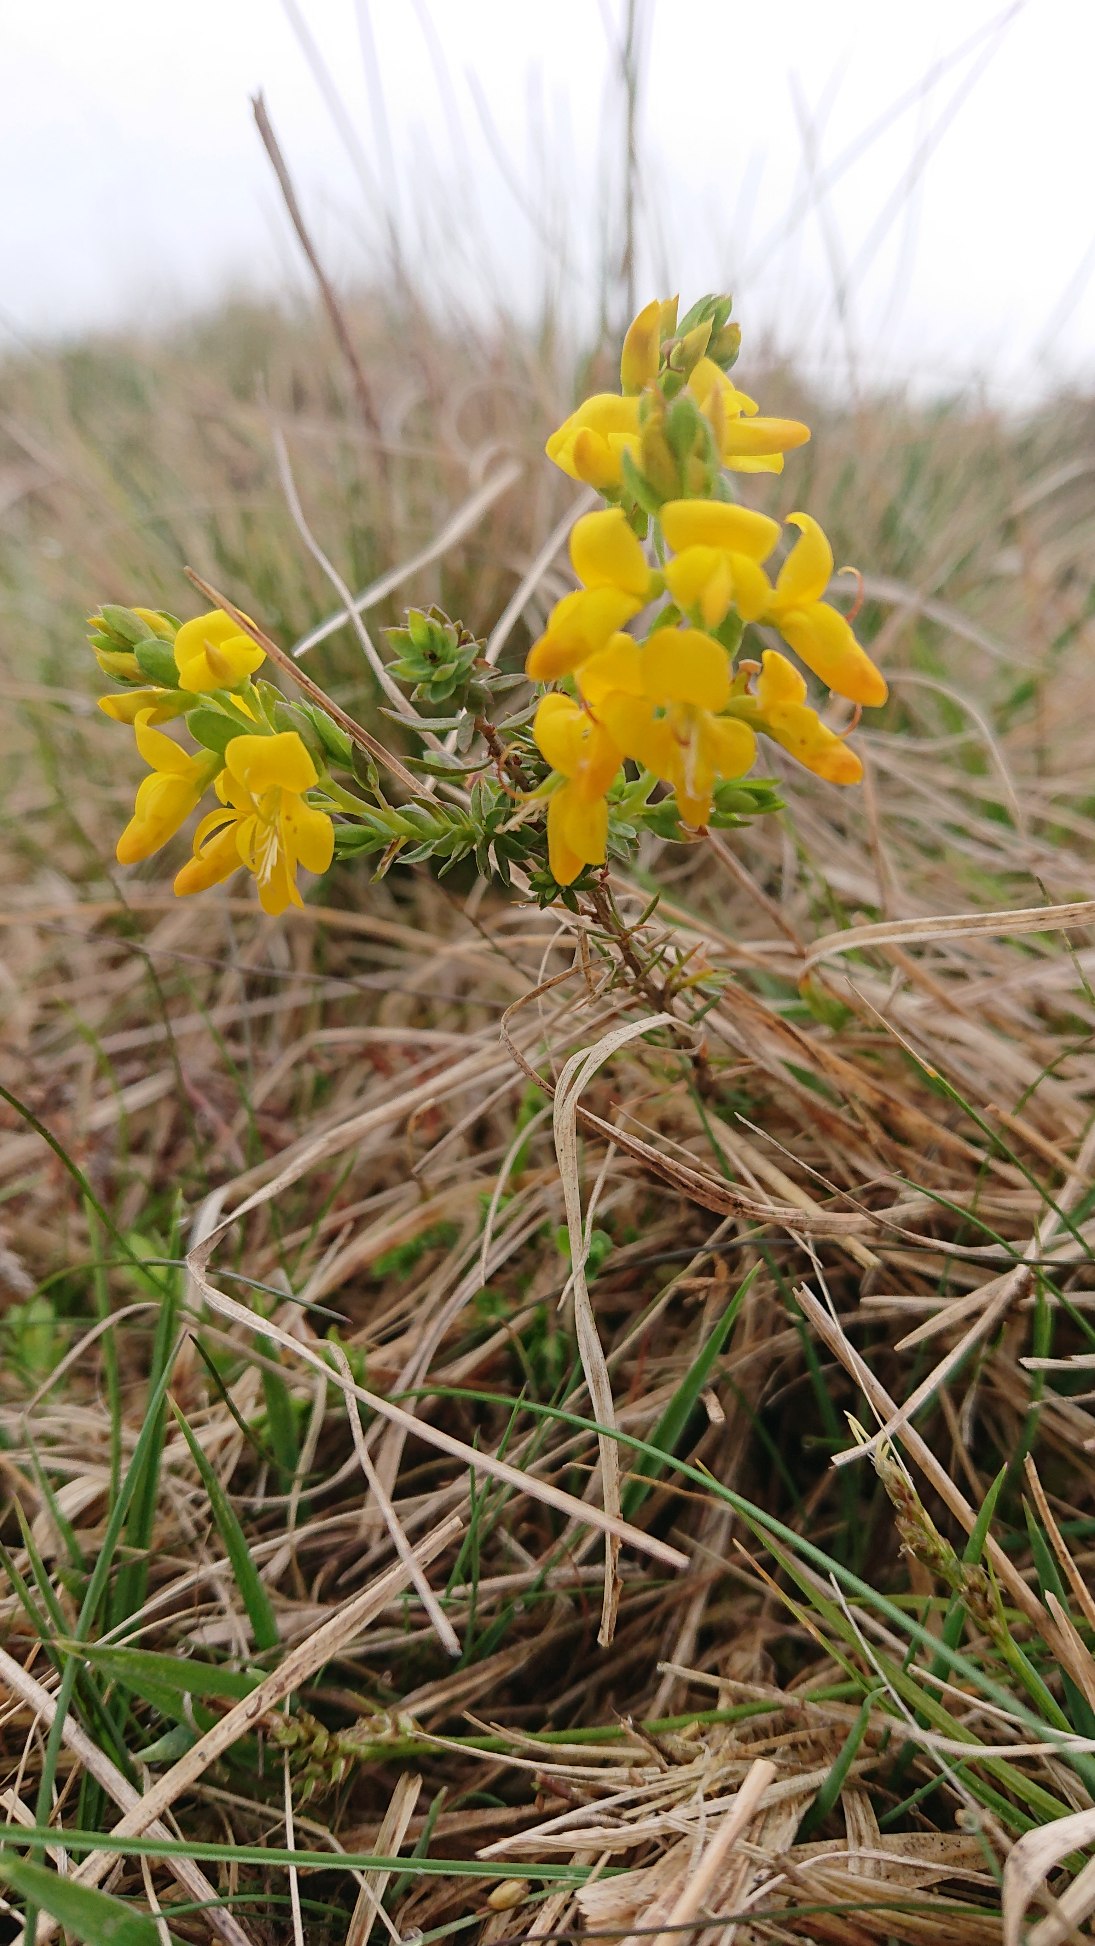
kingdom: Plantae
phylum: Tracheophyta
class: Magnoliopsida
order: Fabales
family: Fabaceae
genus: Genista
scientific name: Genista anglica
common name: Engelsk visse
